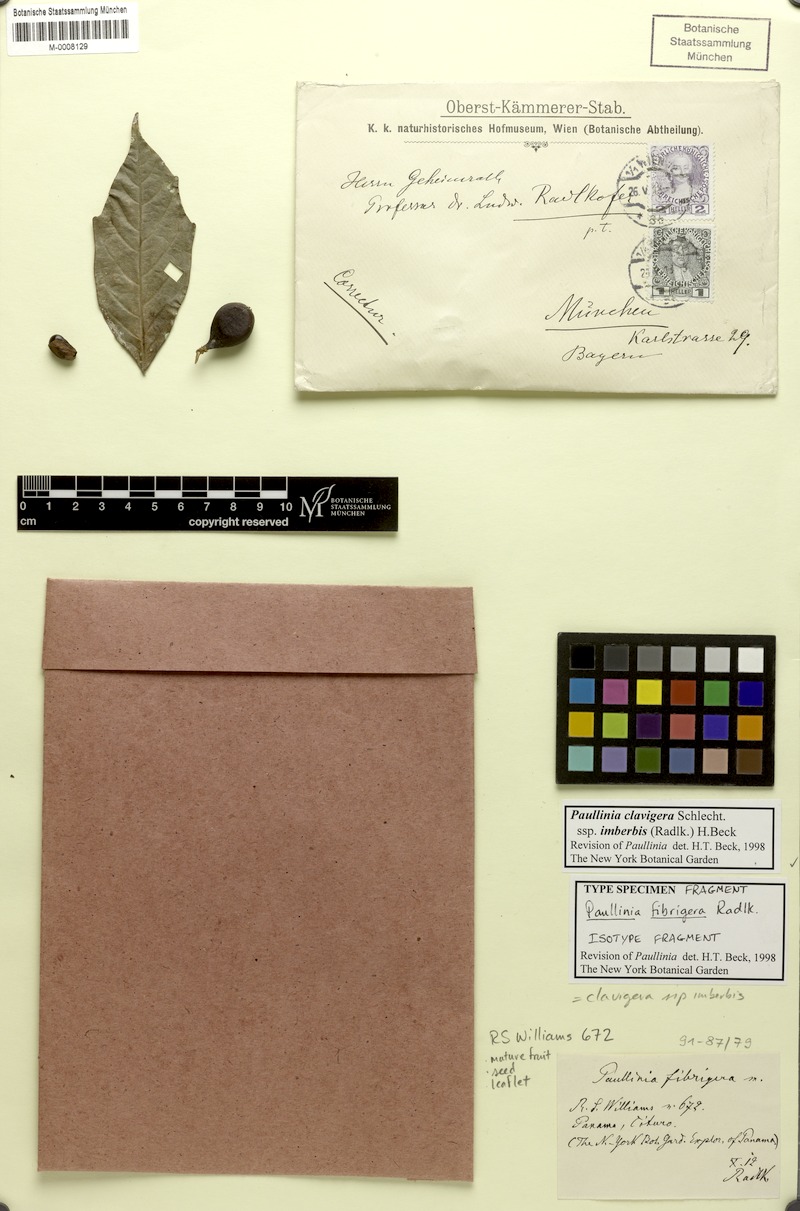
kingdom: Plantae
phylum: Tracheophyta
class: Magnoliopsida
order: Sapindales
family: Sapindaceae
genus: Paullinia
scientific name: Paullinia clavigera
